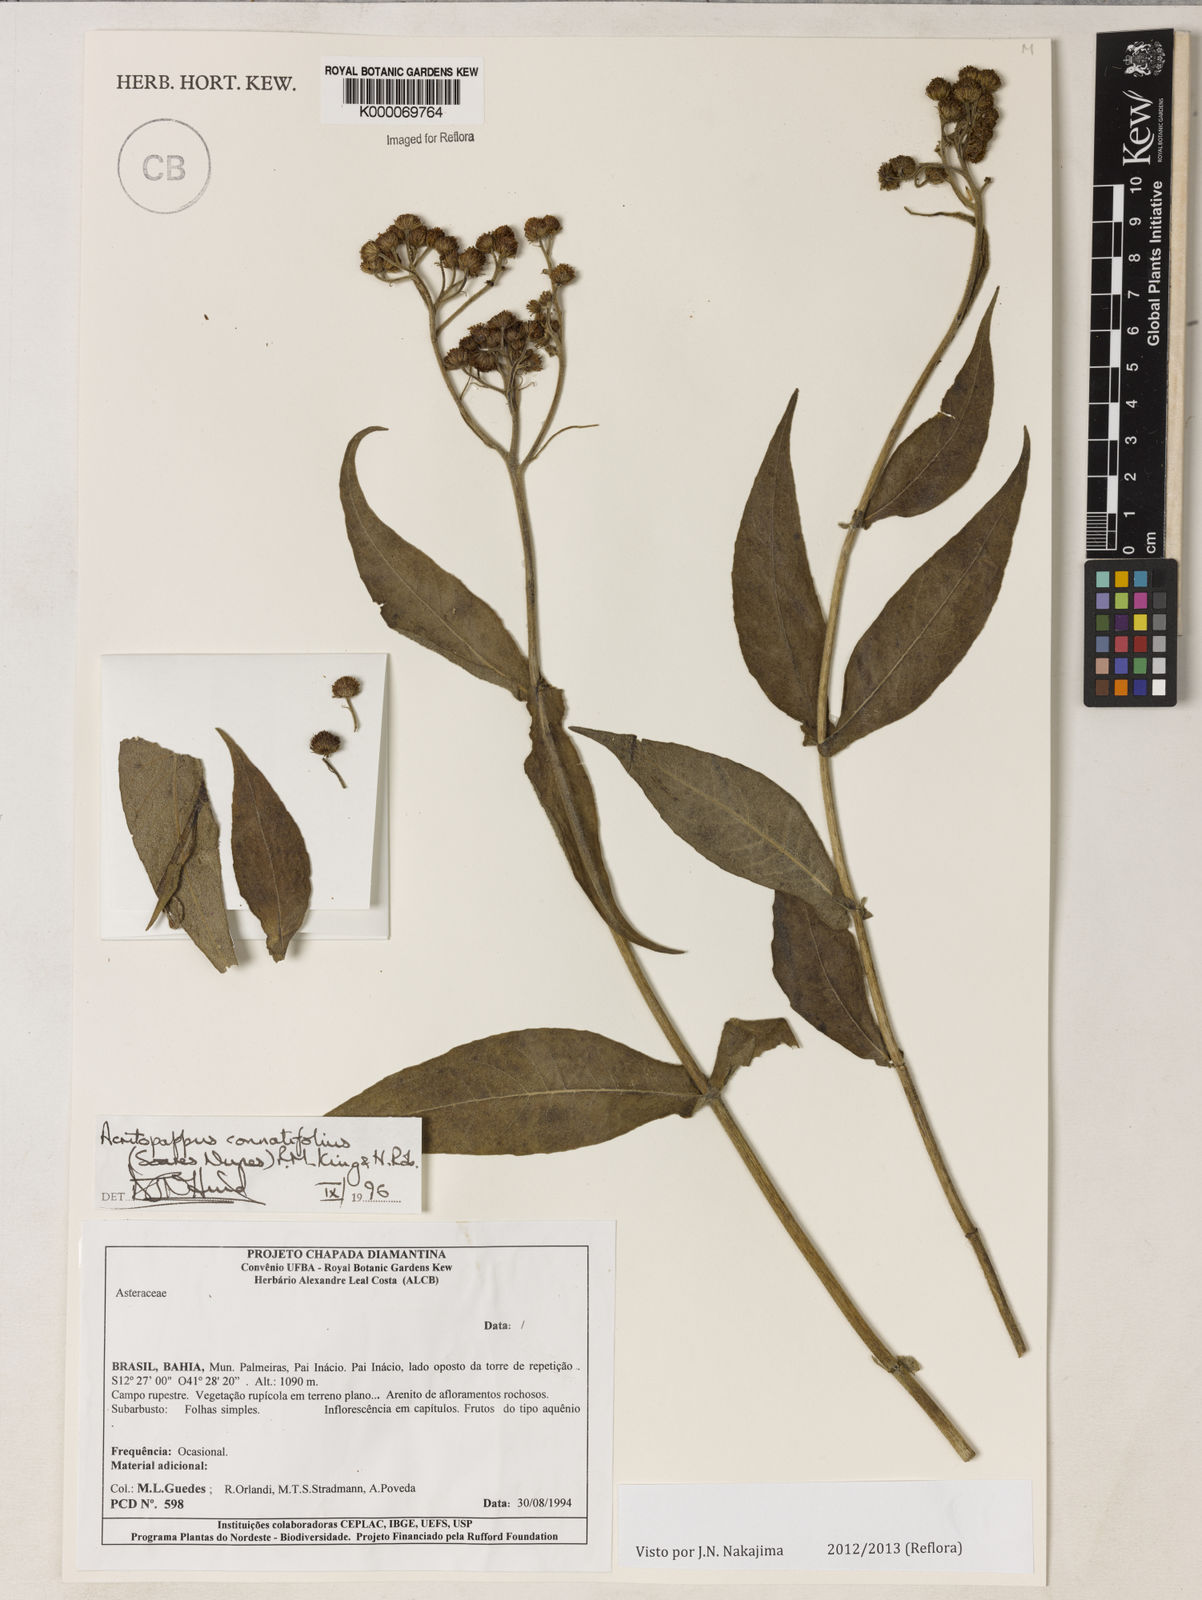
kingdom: Plantae
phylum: Tracheophyta
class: Magnoliopsida
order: Asterales
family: Asteraceae
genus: Acritopappus
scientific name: Acritopappus connatifolius
